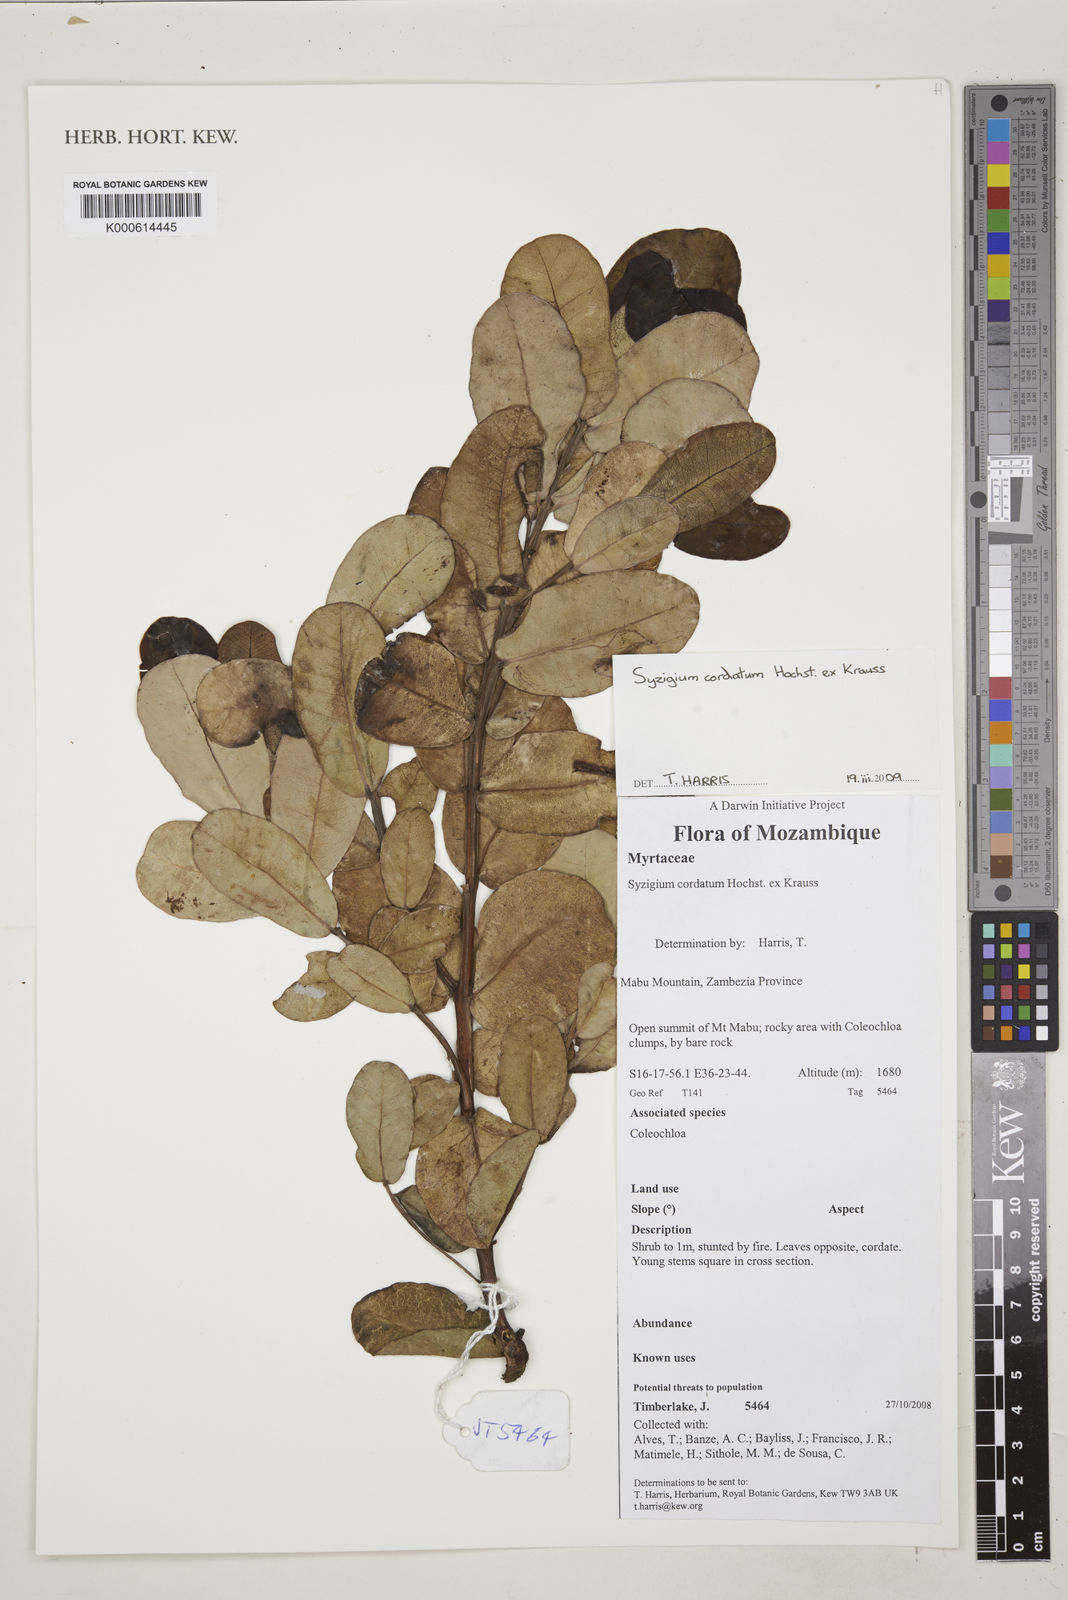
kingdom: Plantae
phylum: Tracheophyta
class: Magnoliopsida
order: Myrtales
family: Myrtaceae
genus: Syzygium
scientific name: Syzygium cordatum
